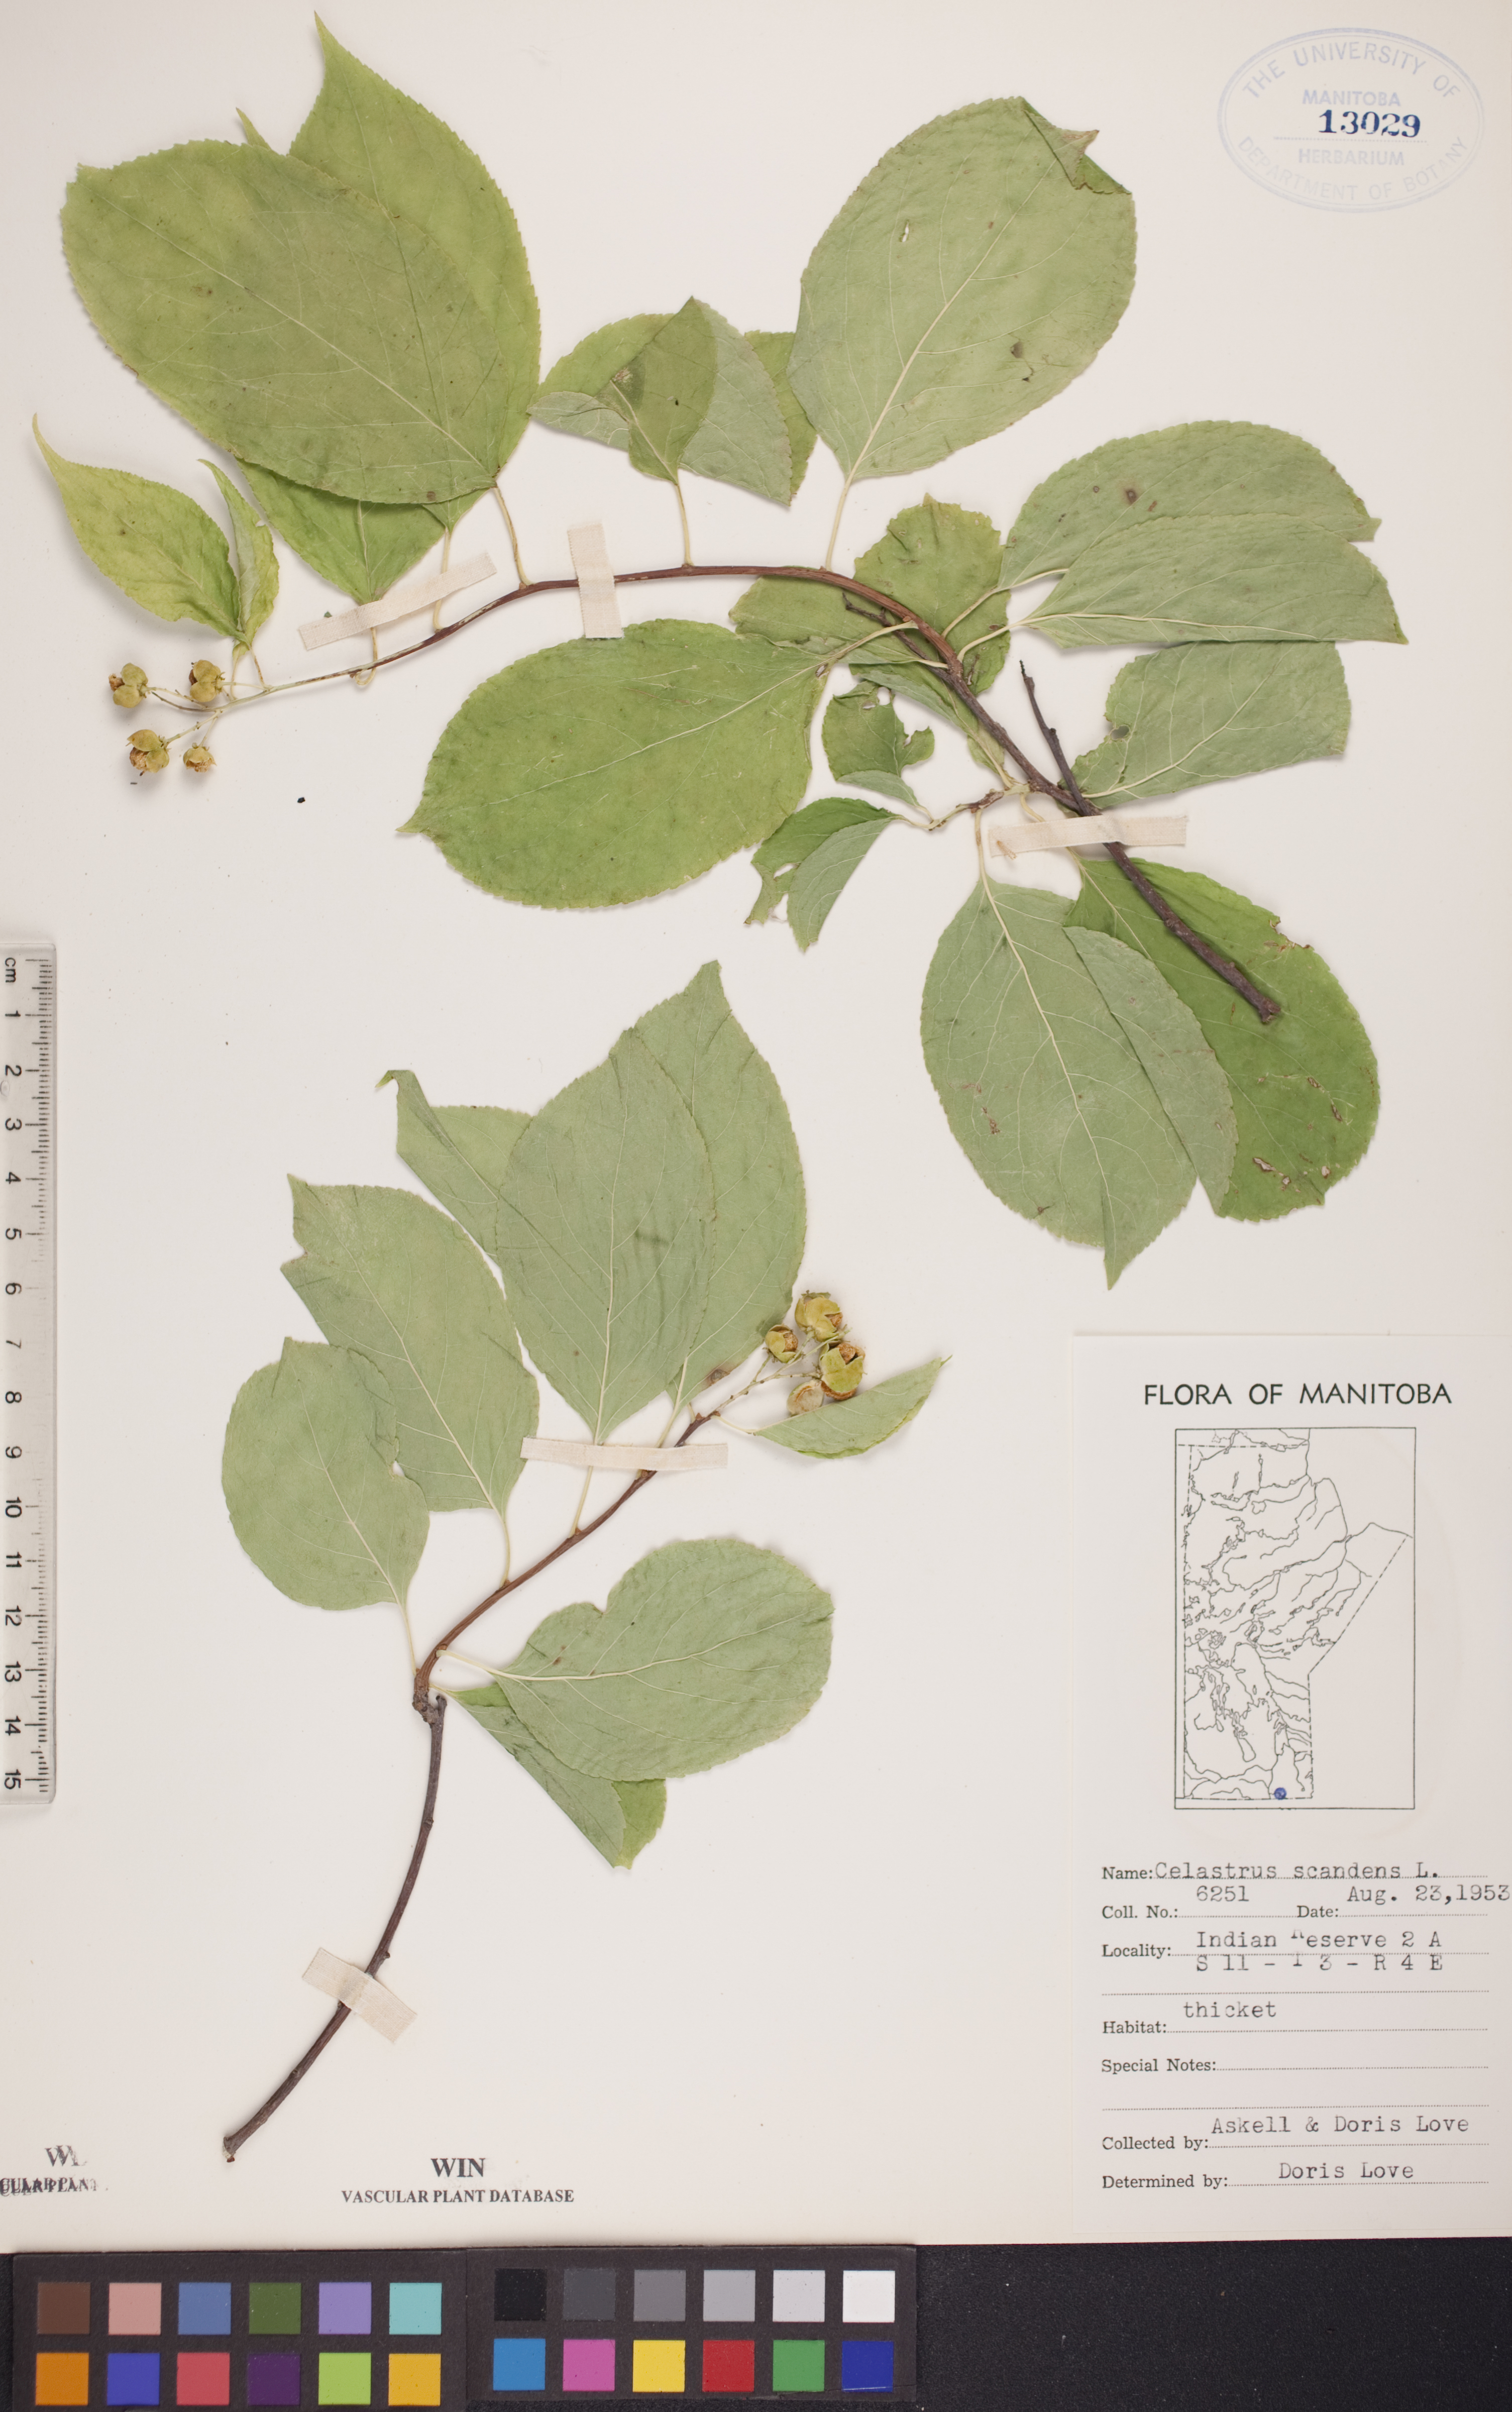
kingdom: Plantae
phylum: Tracheophyta
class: Magnoliopsida
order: Celastrales
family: Celastraceae
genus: Celastrus
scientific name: Celastrus scandens
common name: American bittersweet
